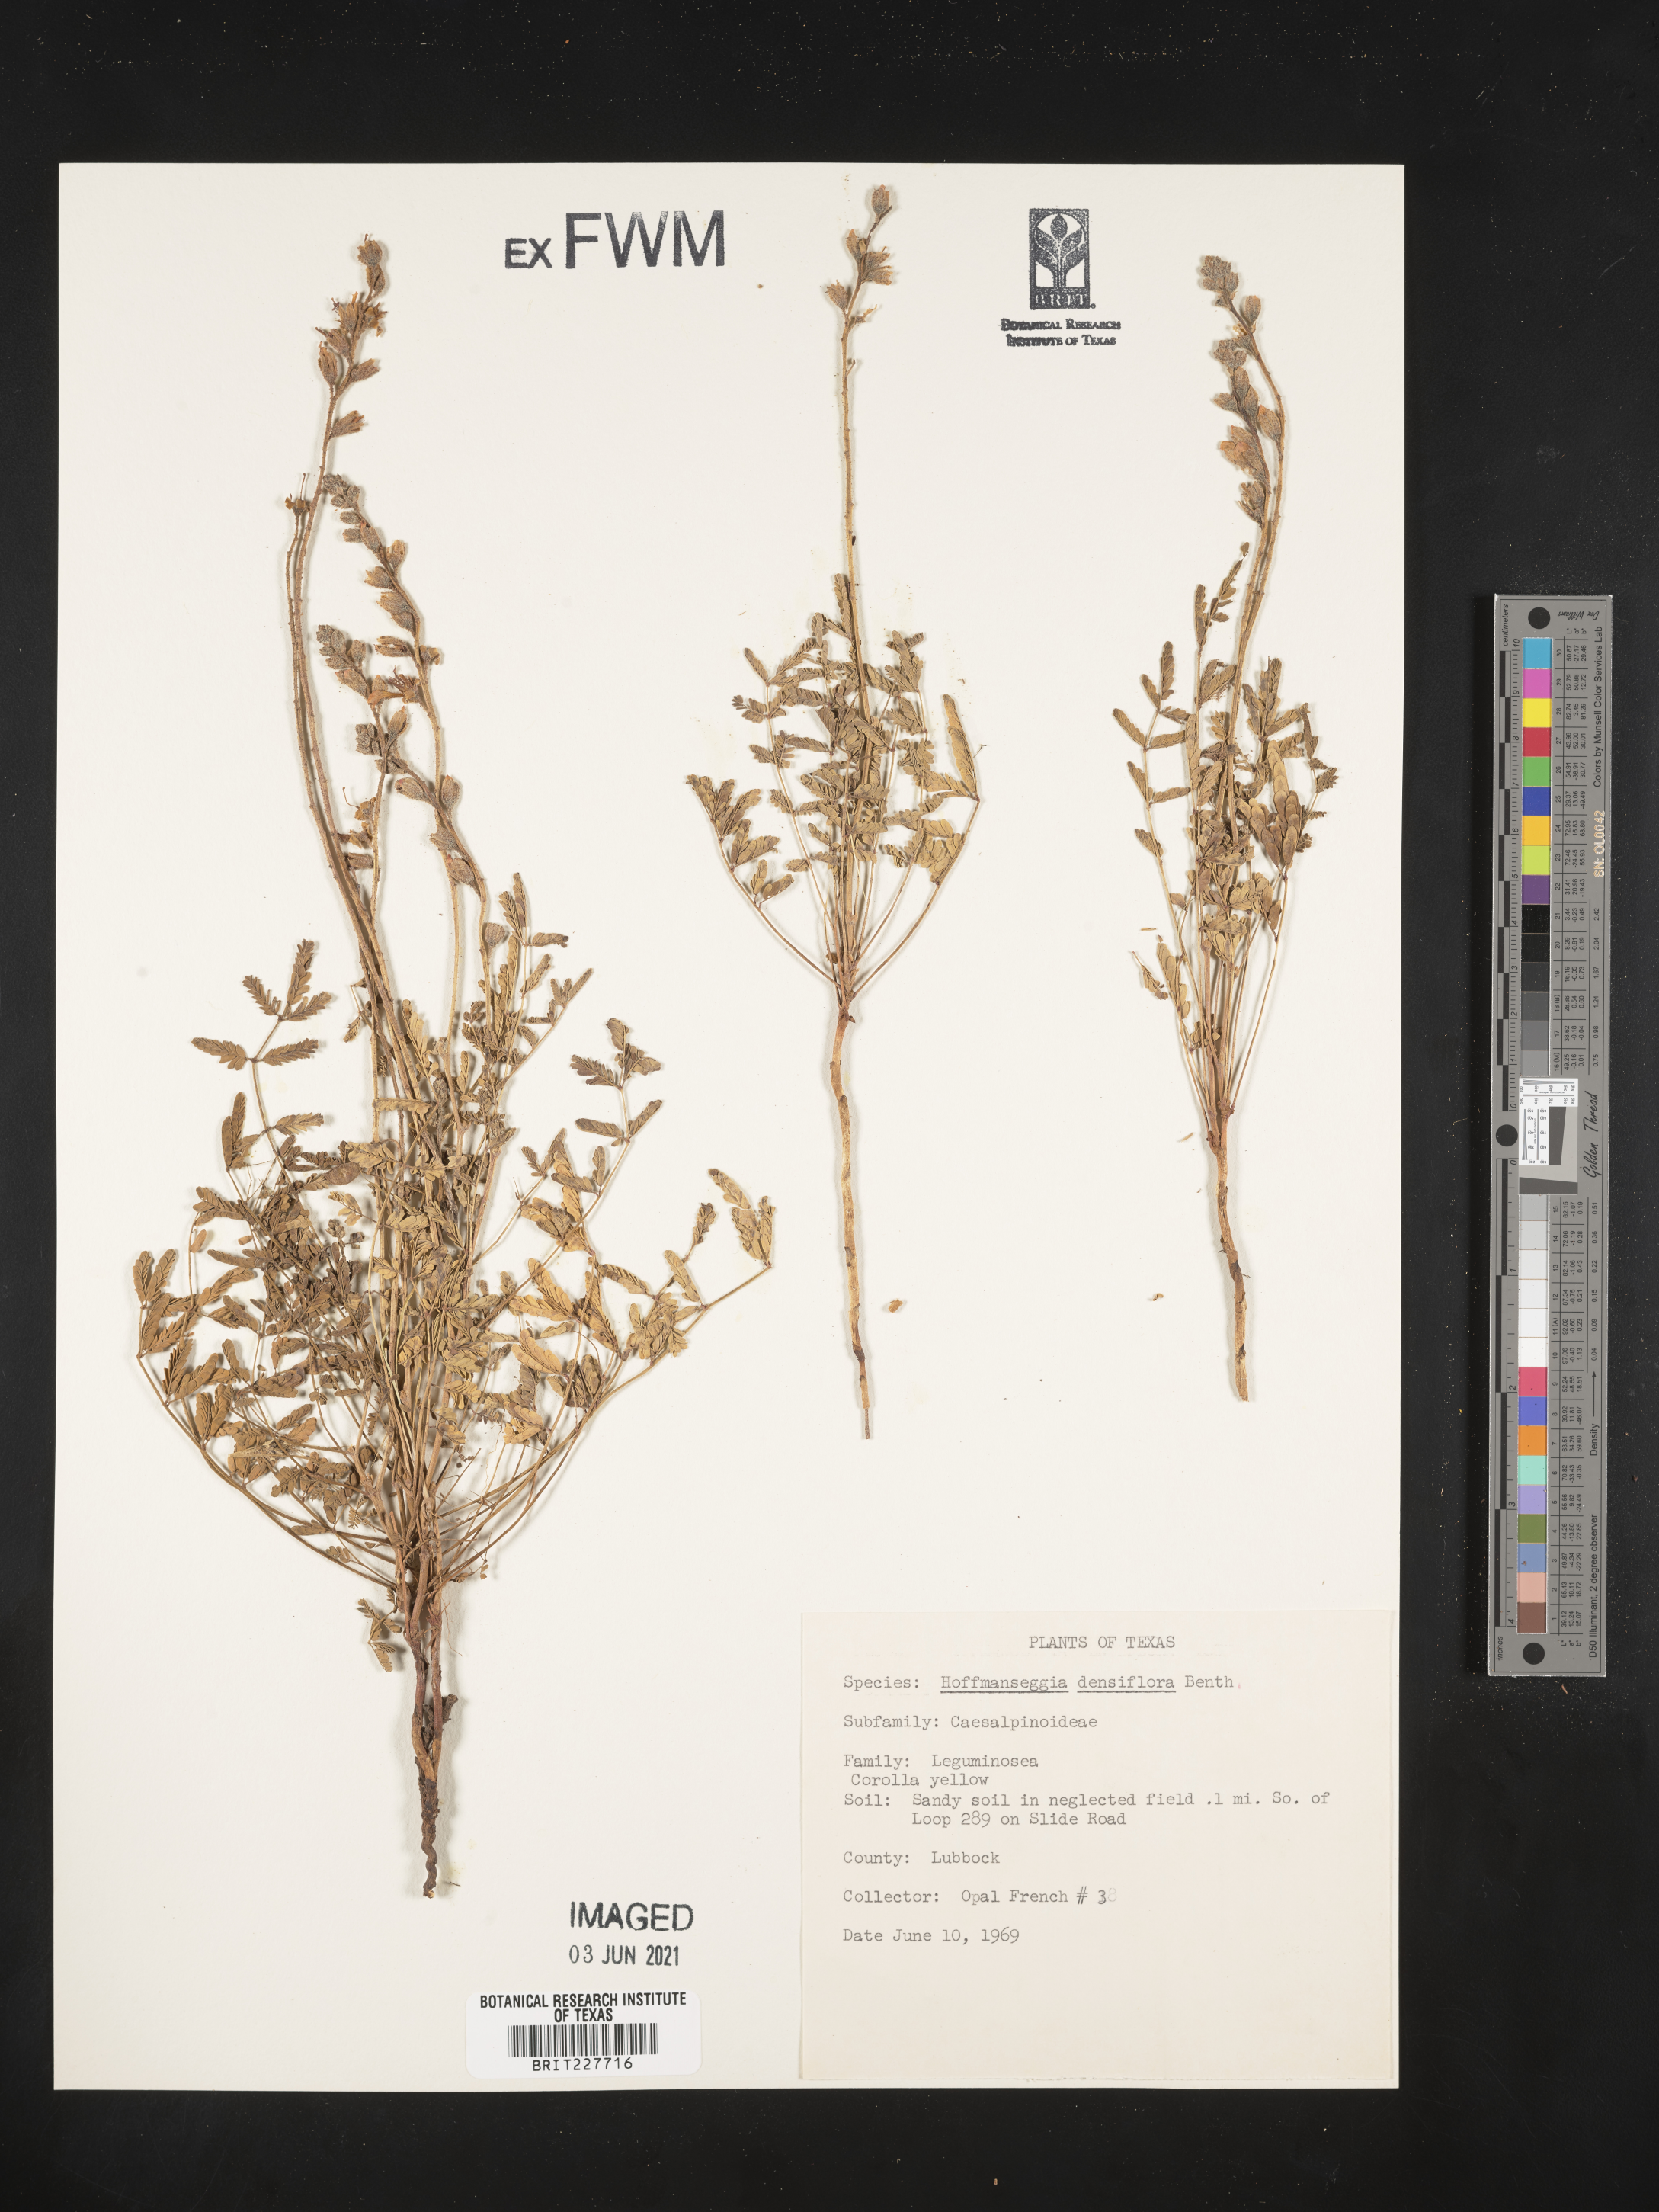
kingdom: Plantae
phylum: Tracheophyta
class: Magnoliopsida
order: Fabales
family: Fabaceae
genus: Hoffmannseggia
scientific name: Hoffmannseggia glauca
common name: Pignut
